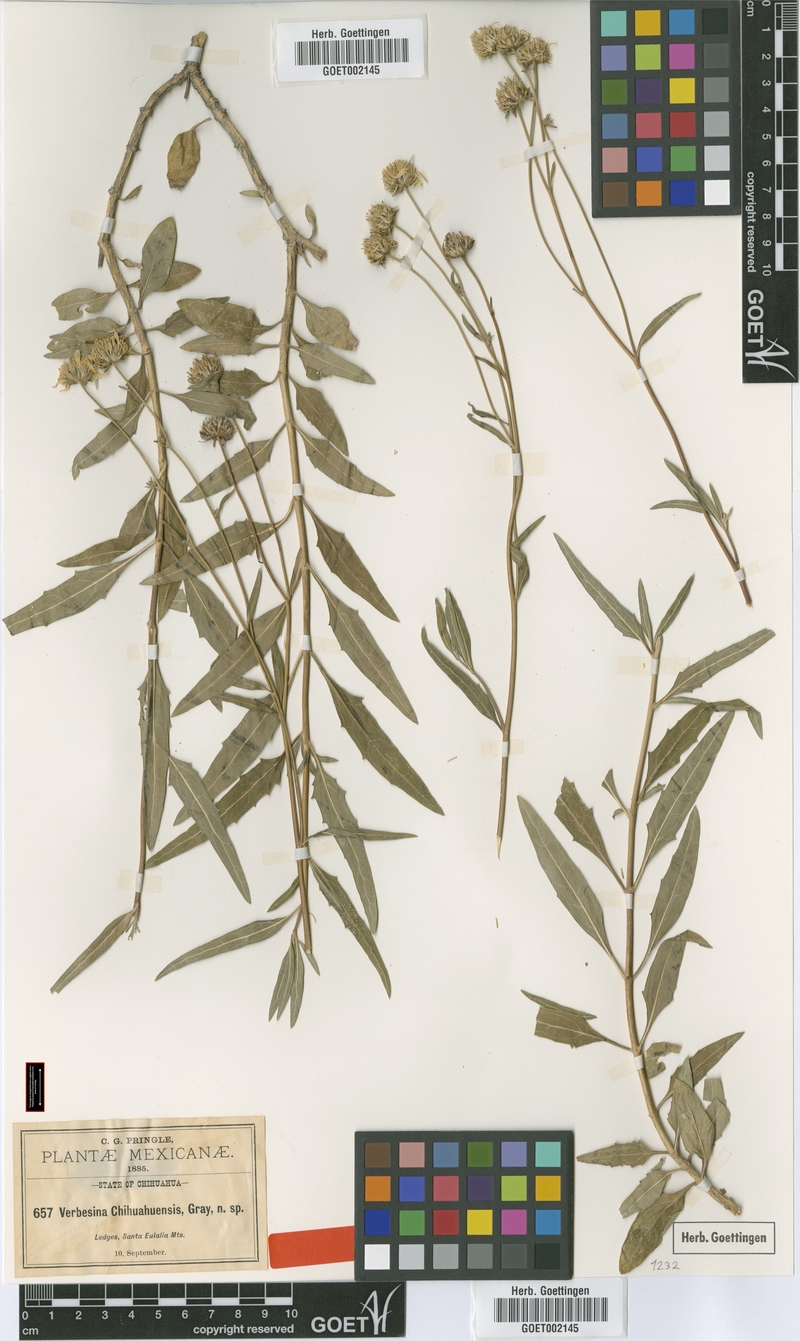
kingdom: Plantae
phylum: Tracheophyta
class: Magnoliopsida
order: Asterales
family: Asteraceae
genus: Verbesina
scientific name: Verbesina chihuahuensis
